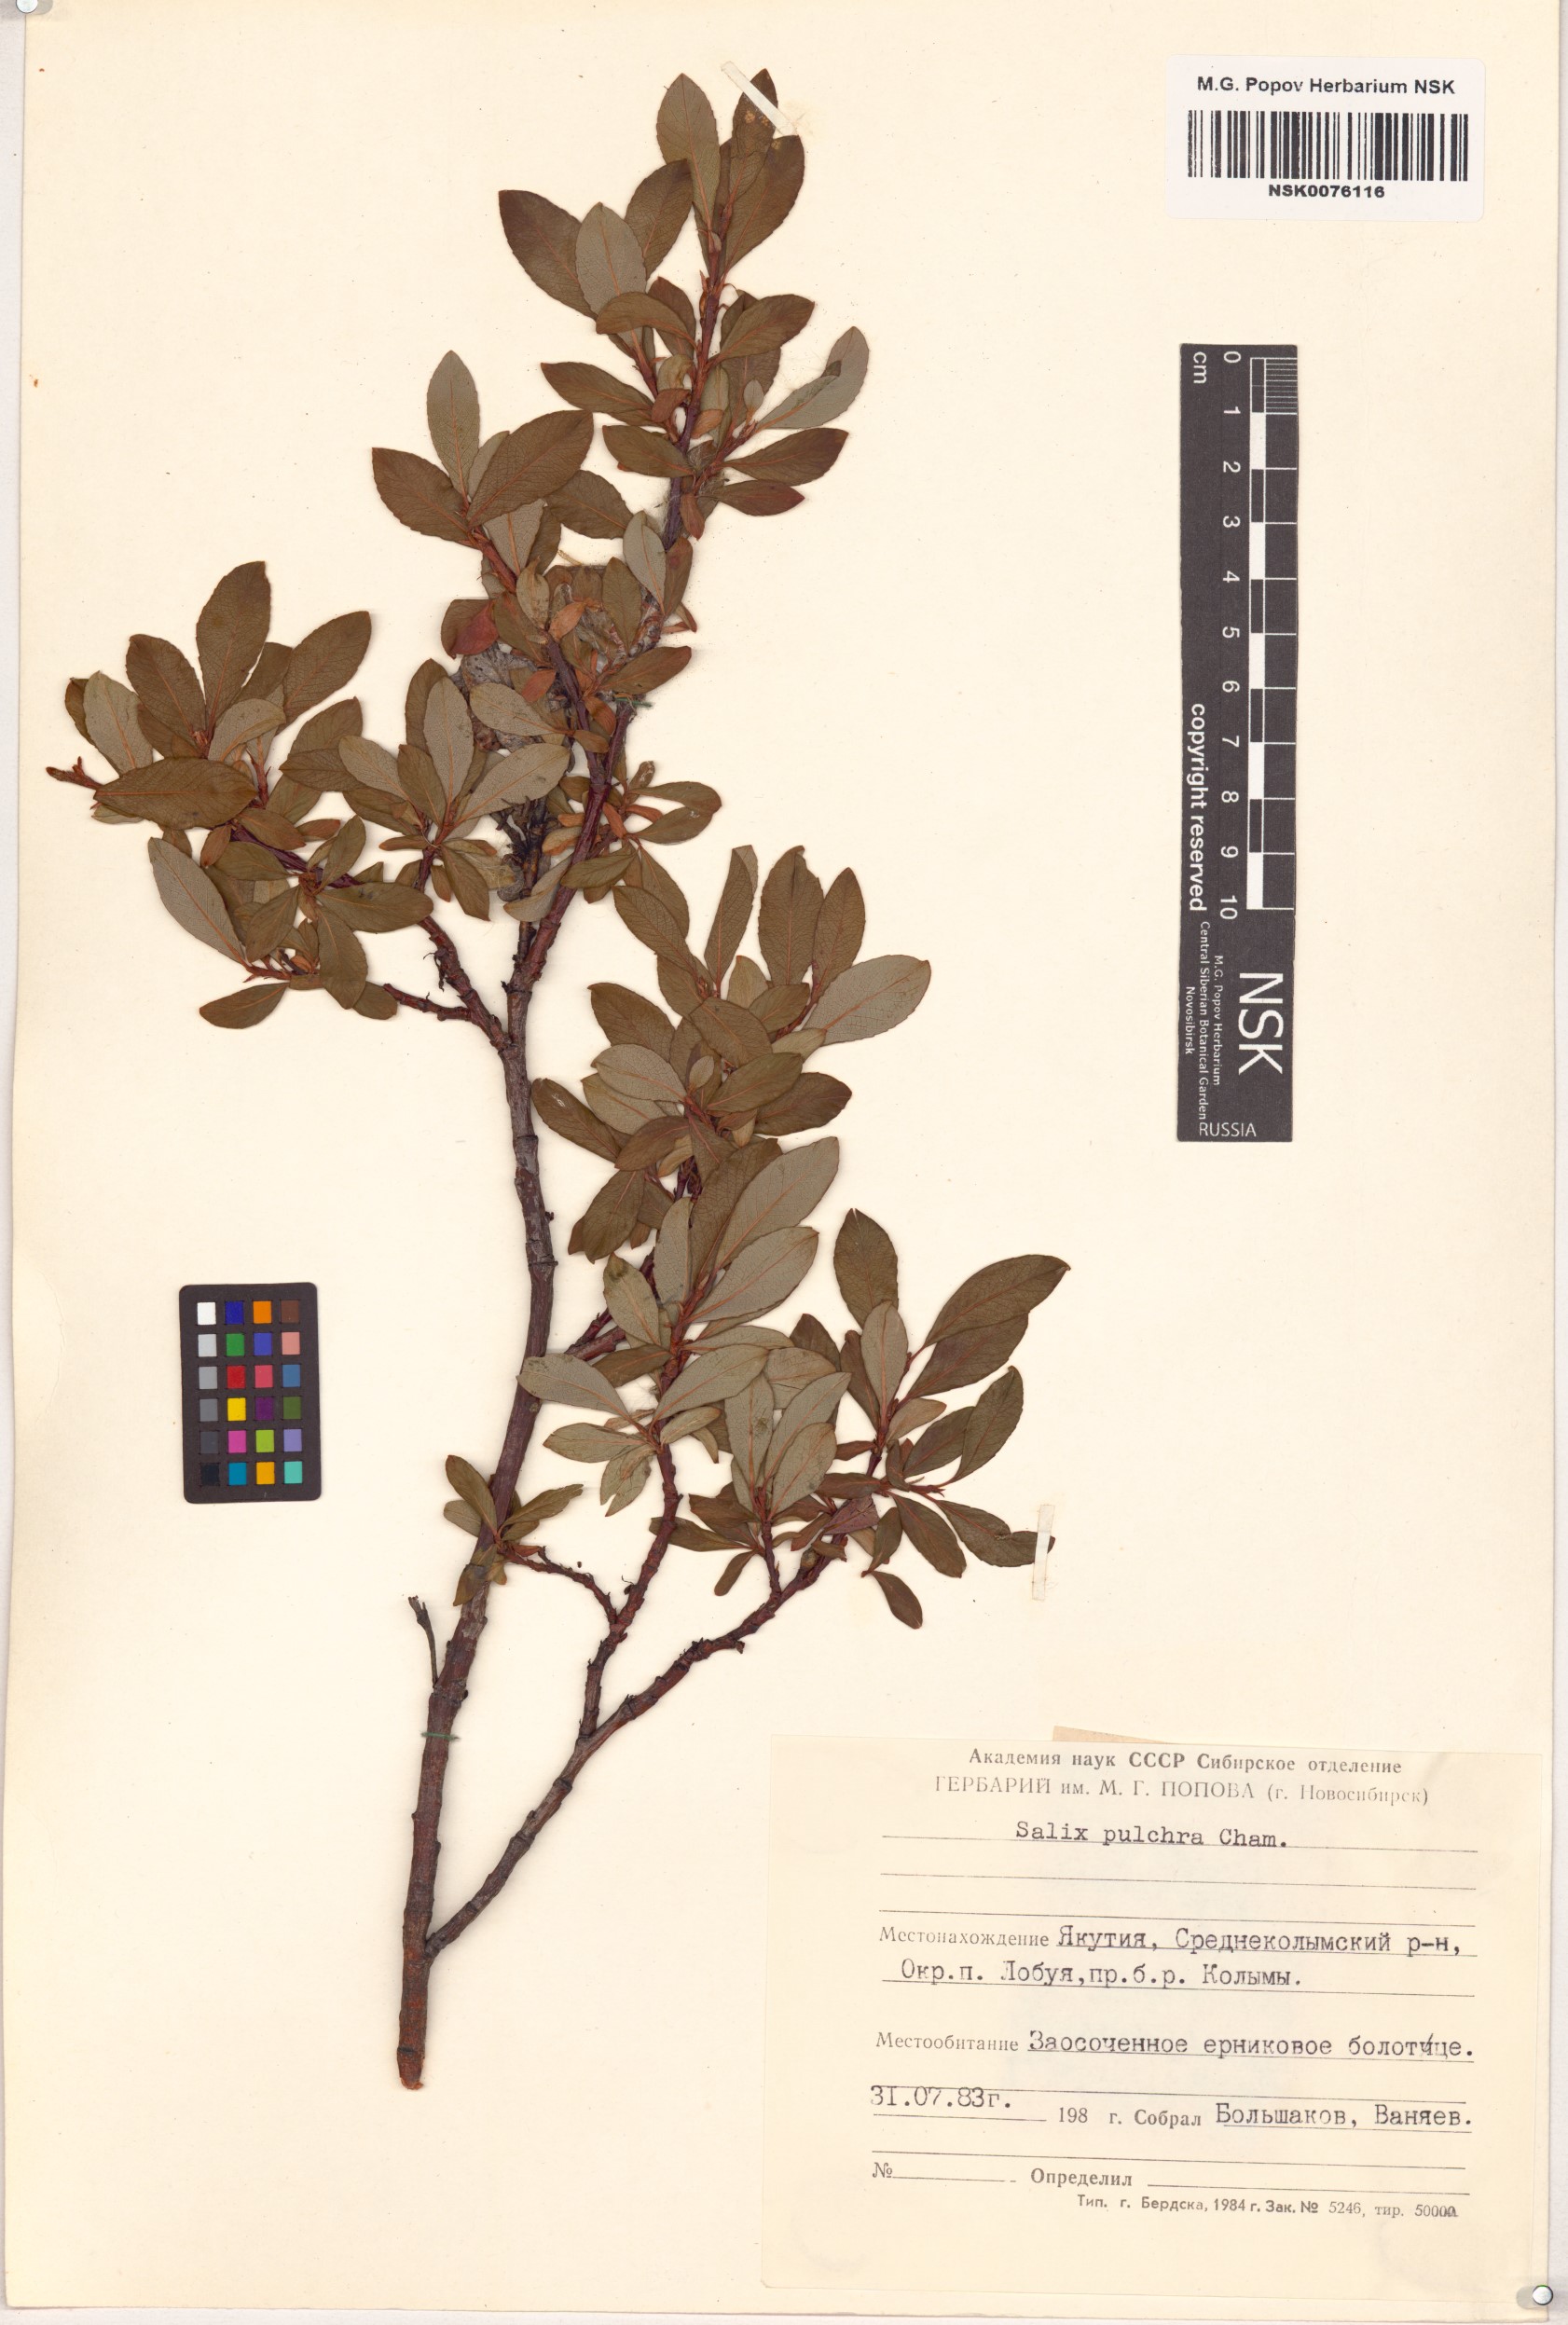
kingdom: Plantae
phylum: Tracheophyta
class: Magnoliopsida
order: Malpighiales
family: Salicaceae
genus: Salix
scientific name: Salix pulchra
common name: Diamond-leaved willow
